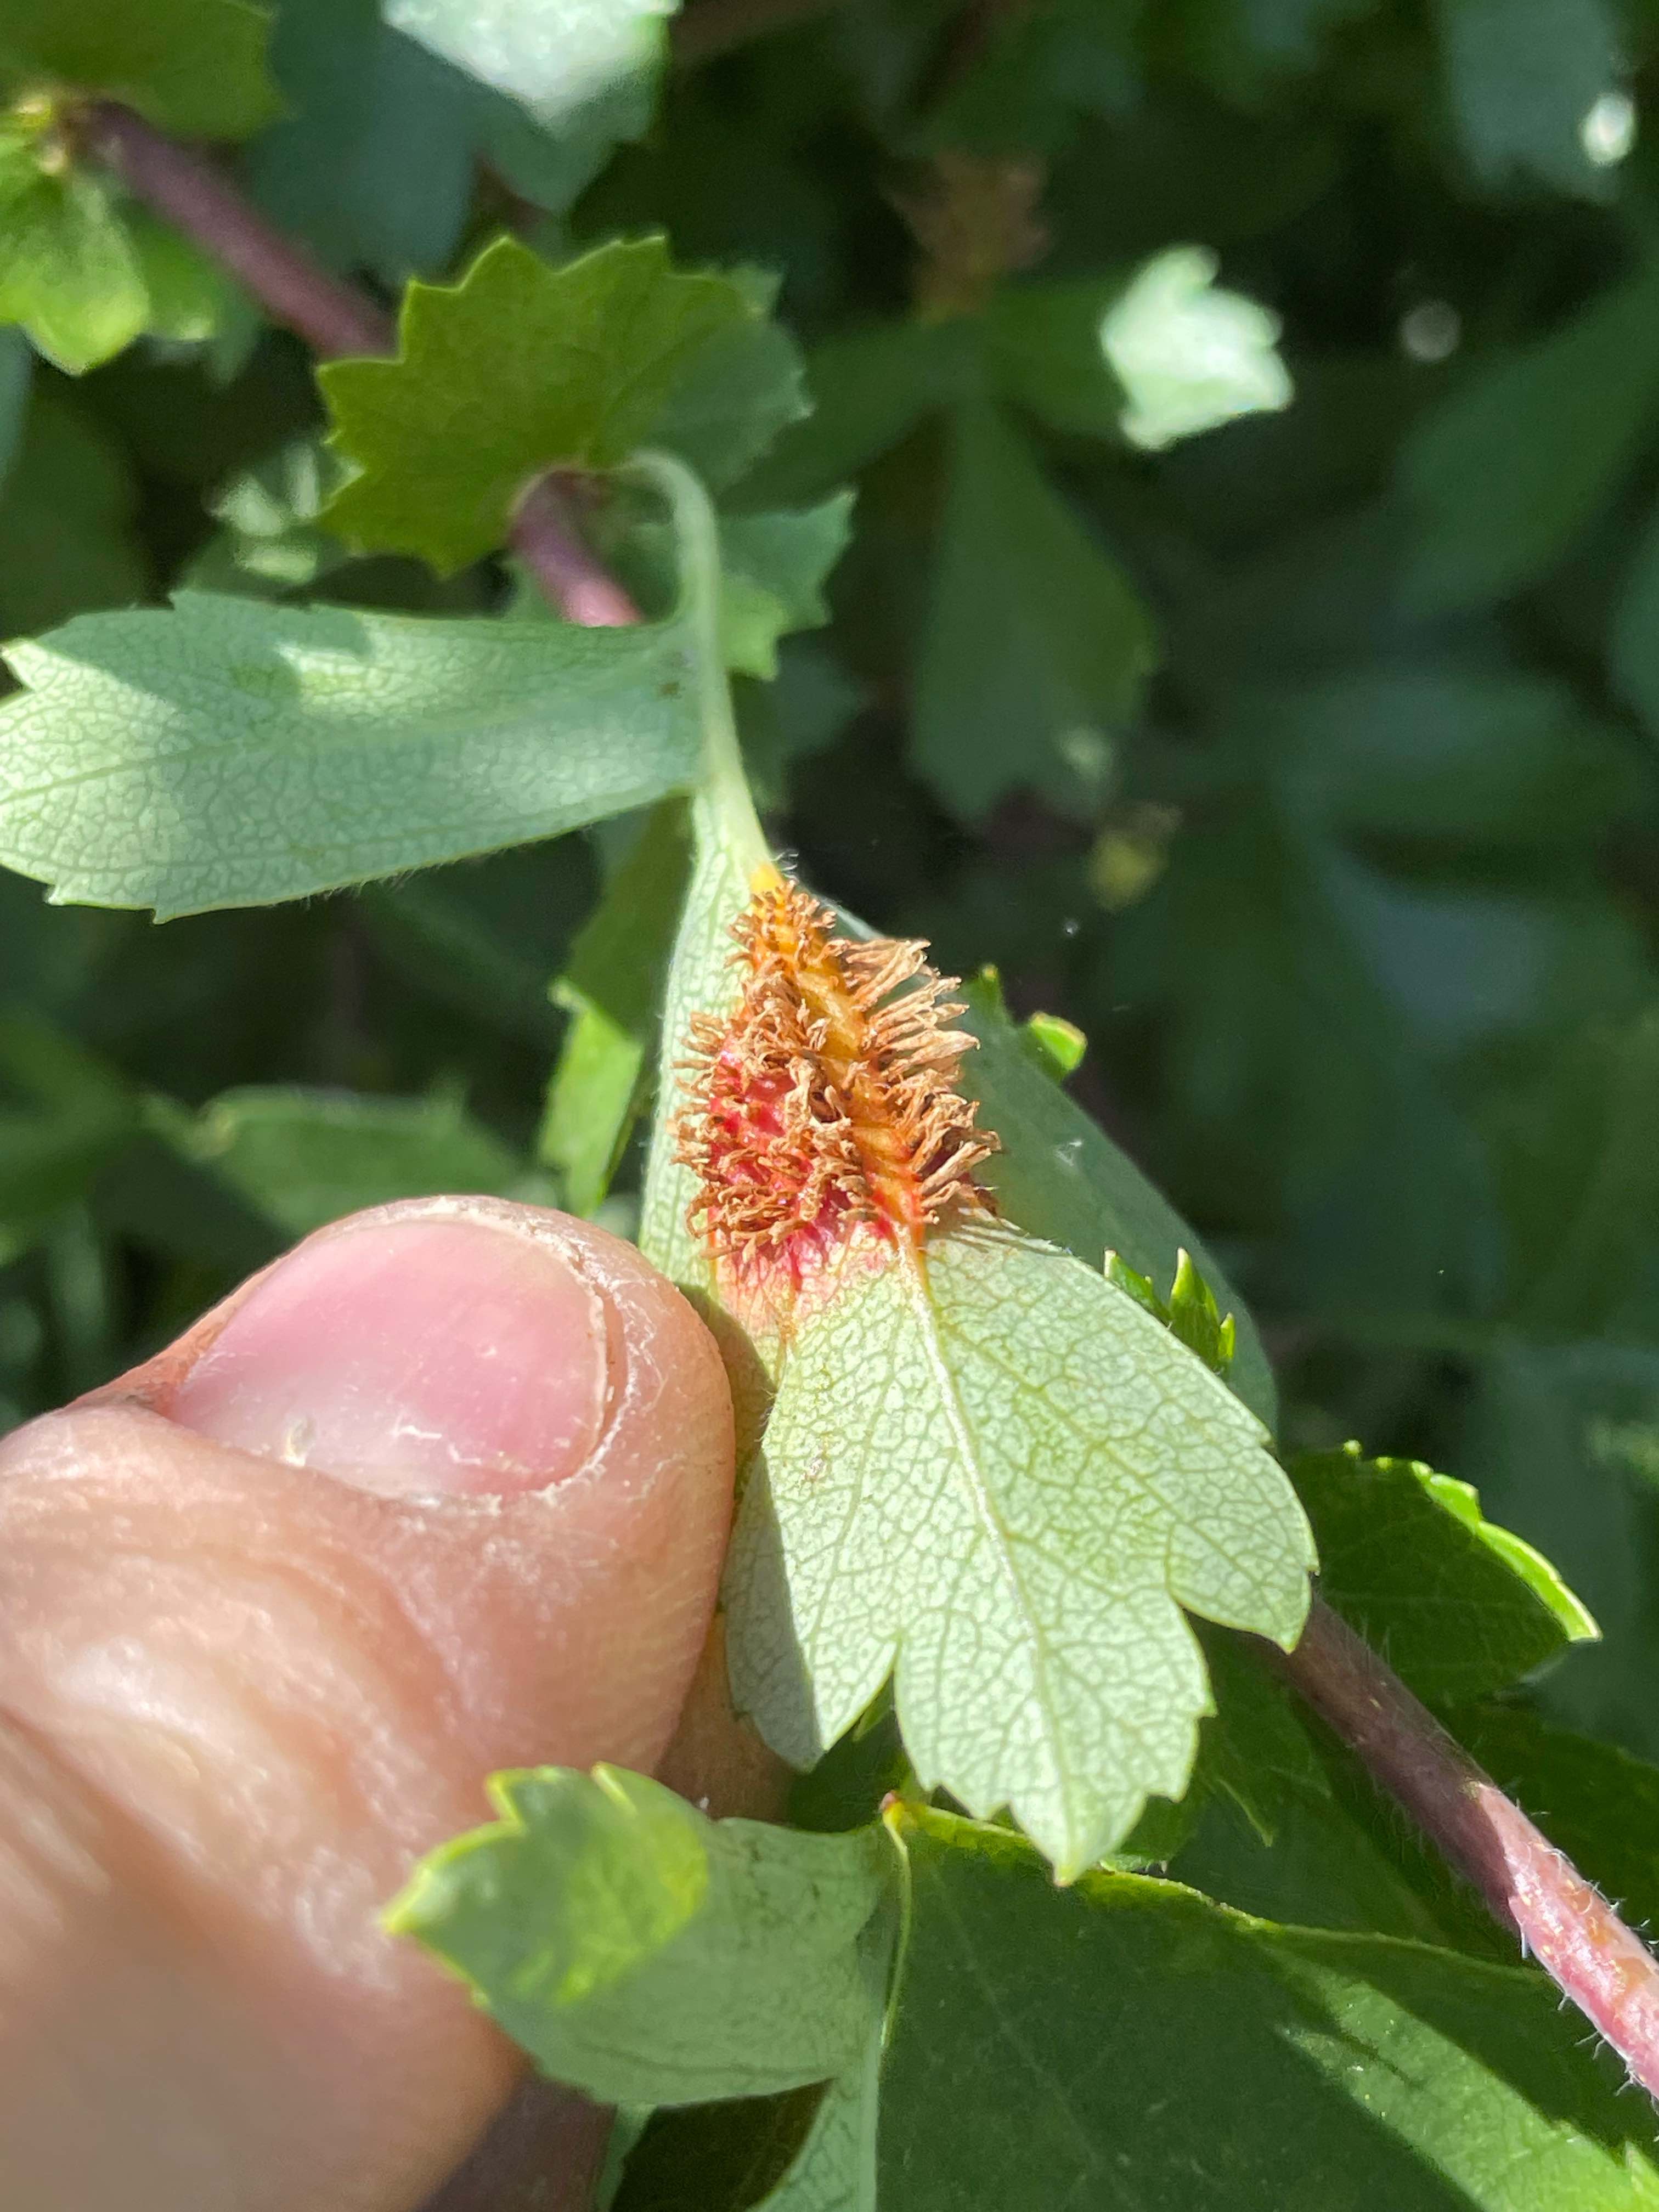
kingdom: Fungi
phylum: Basidiomycota
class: Pucciniomycetes
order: Pucciniales
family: Gymnosporangiaceae
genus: Gymnosporangium
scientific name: Gymnosporangium
